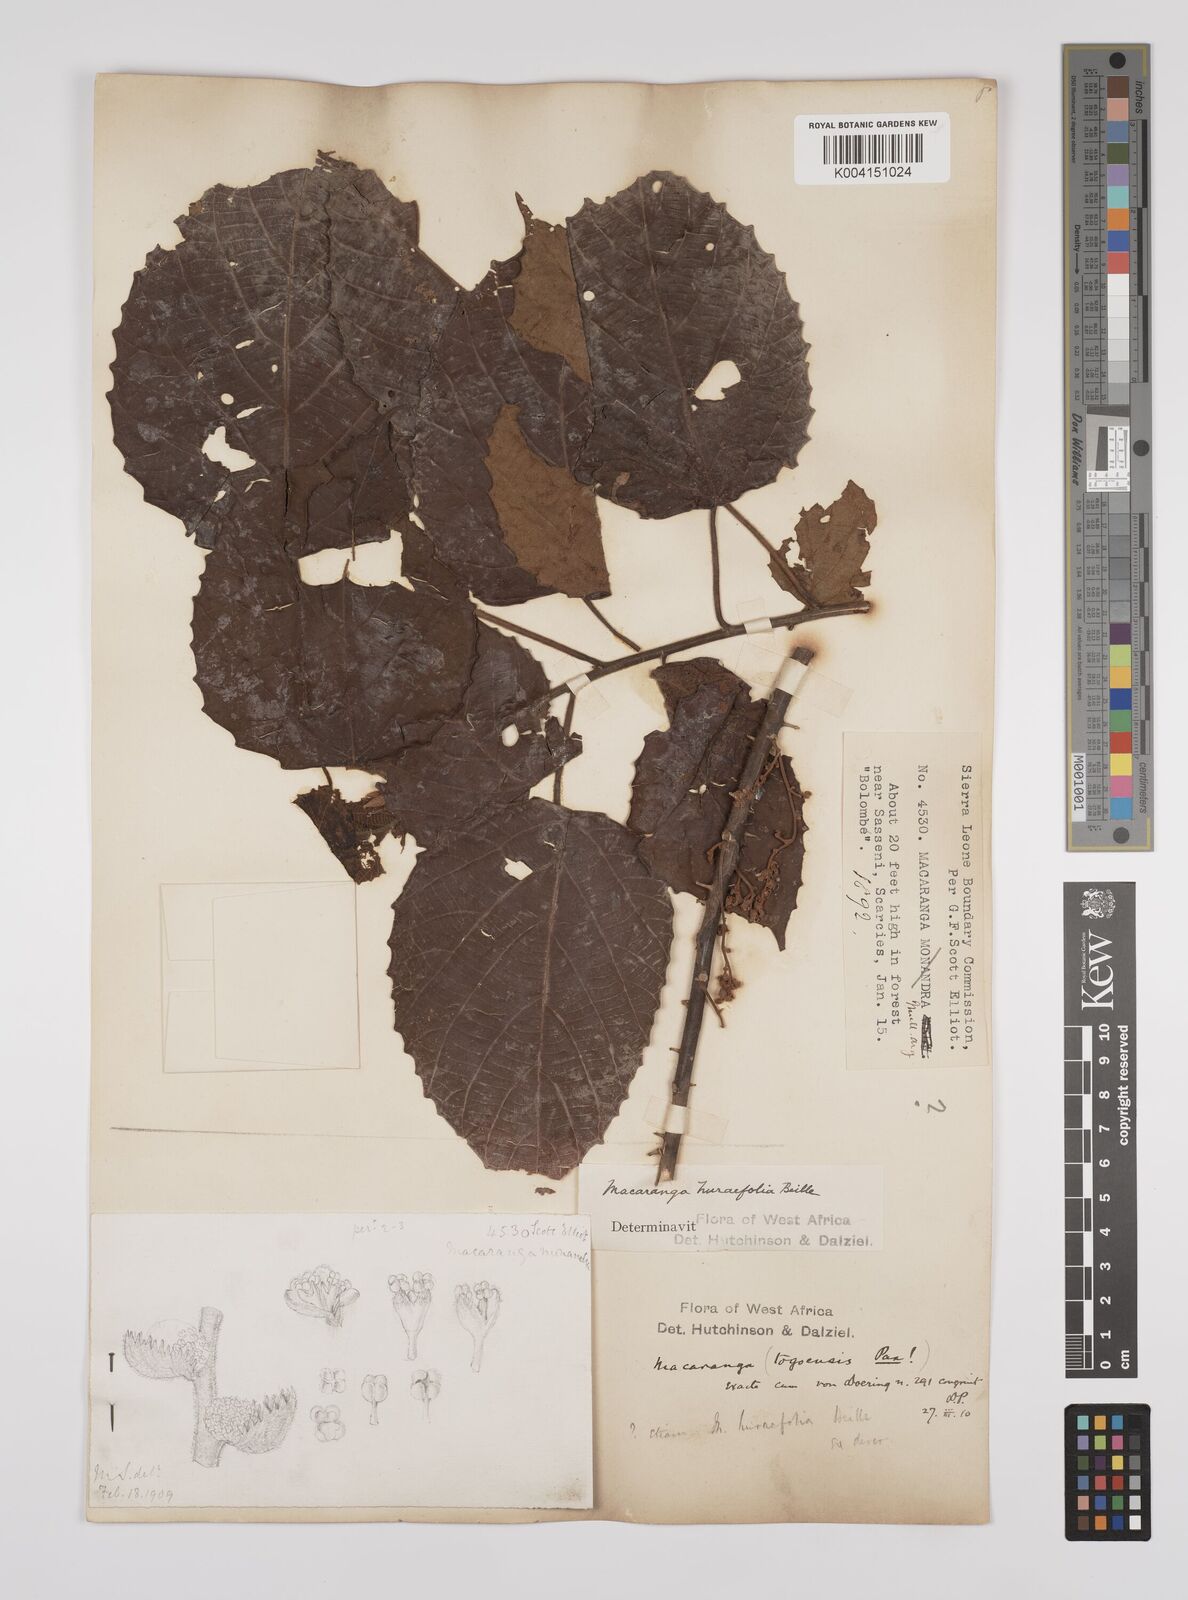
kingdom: Plantae
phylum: Tracheophyta
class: Magnoliopsida
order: Malpighiales
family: Euphorbiaceae
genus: Macaranga
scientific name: Macaranga hurifolia
